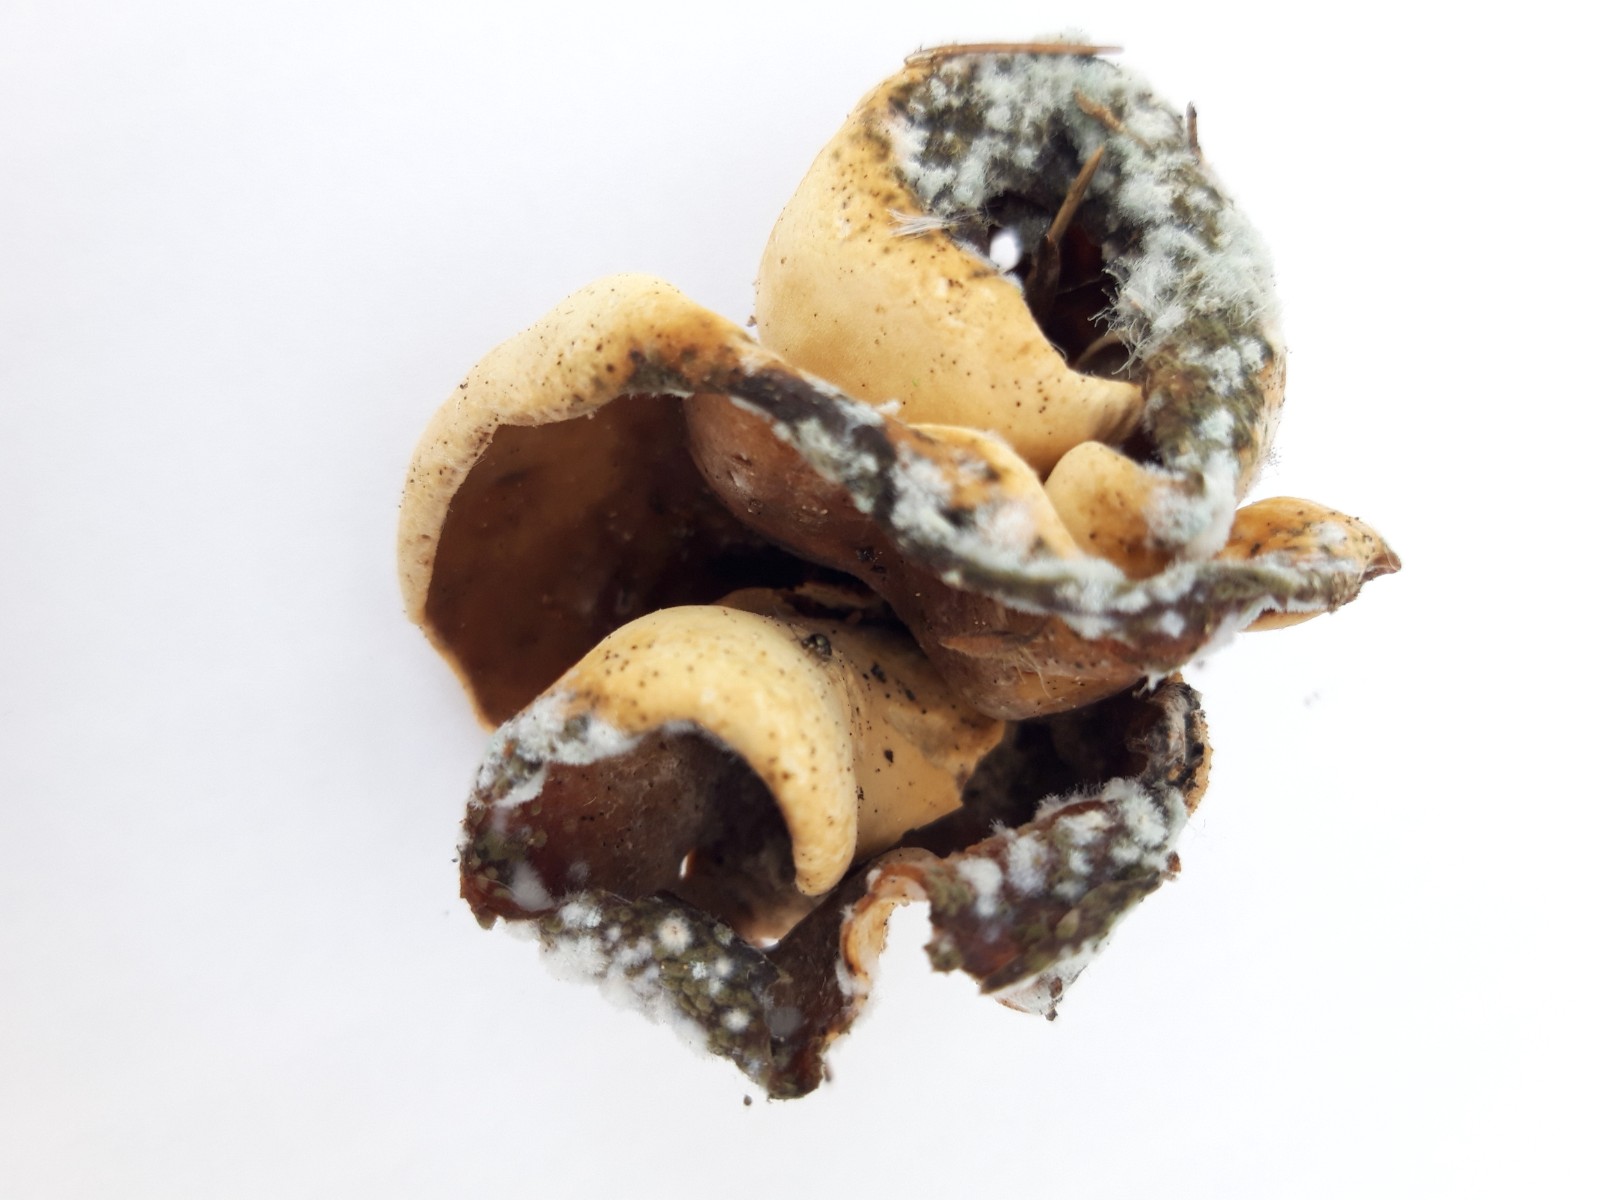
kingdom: Fungi
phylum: Ascomycota
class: Pezizomycetes
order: Pezizales
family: Otideaceae
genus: Otidea
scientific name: Otidea
